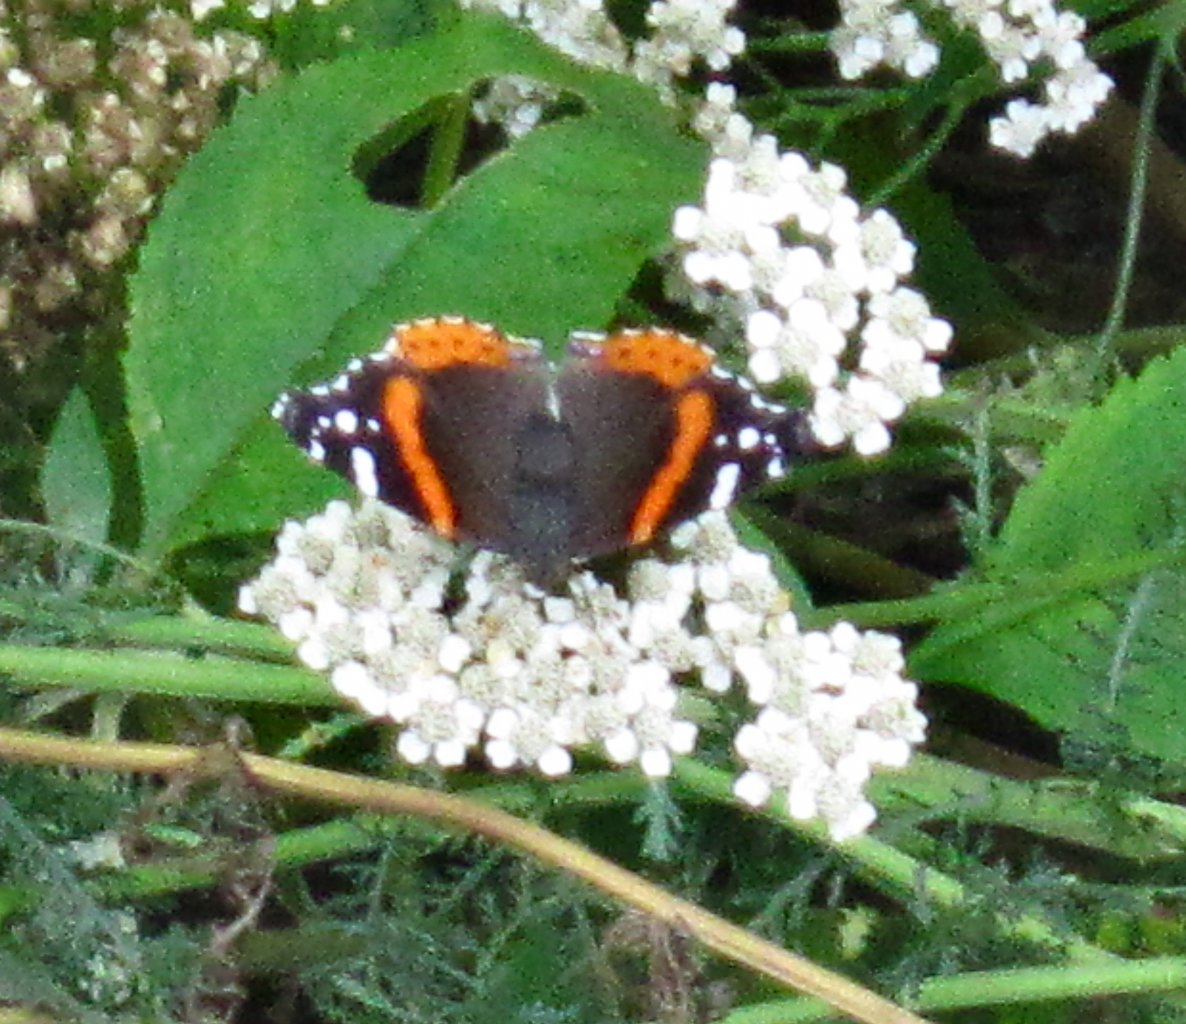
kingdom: Animalia
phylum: Arthropoda
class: Insecta
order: Lepidoptera
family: Nymphalidae
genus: Vanessa
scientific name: Vanessa atalanta
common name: Red Admiral
